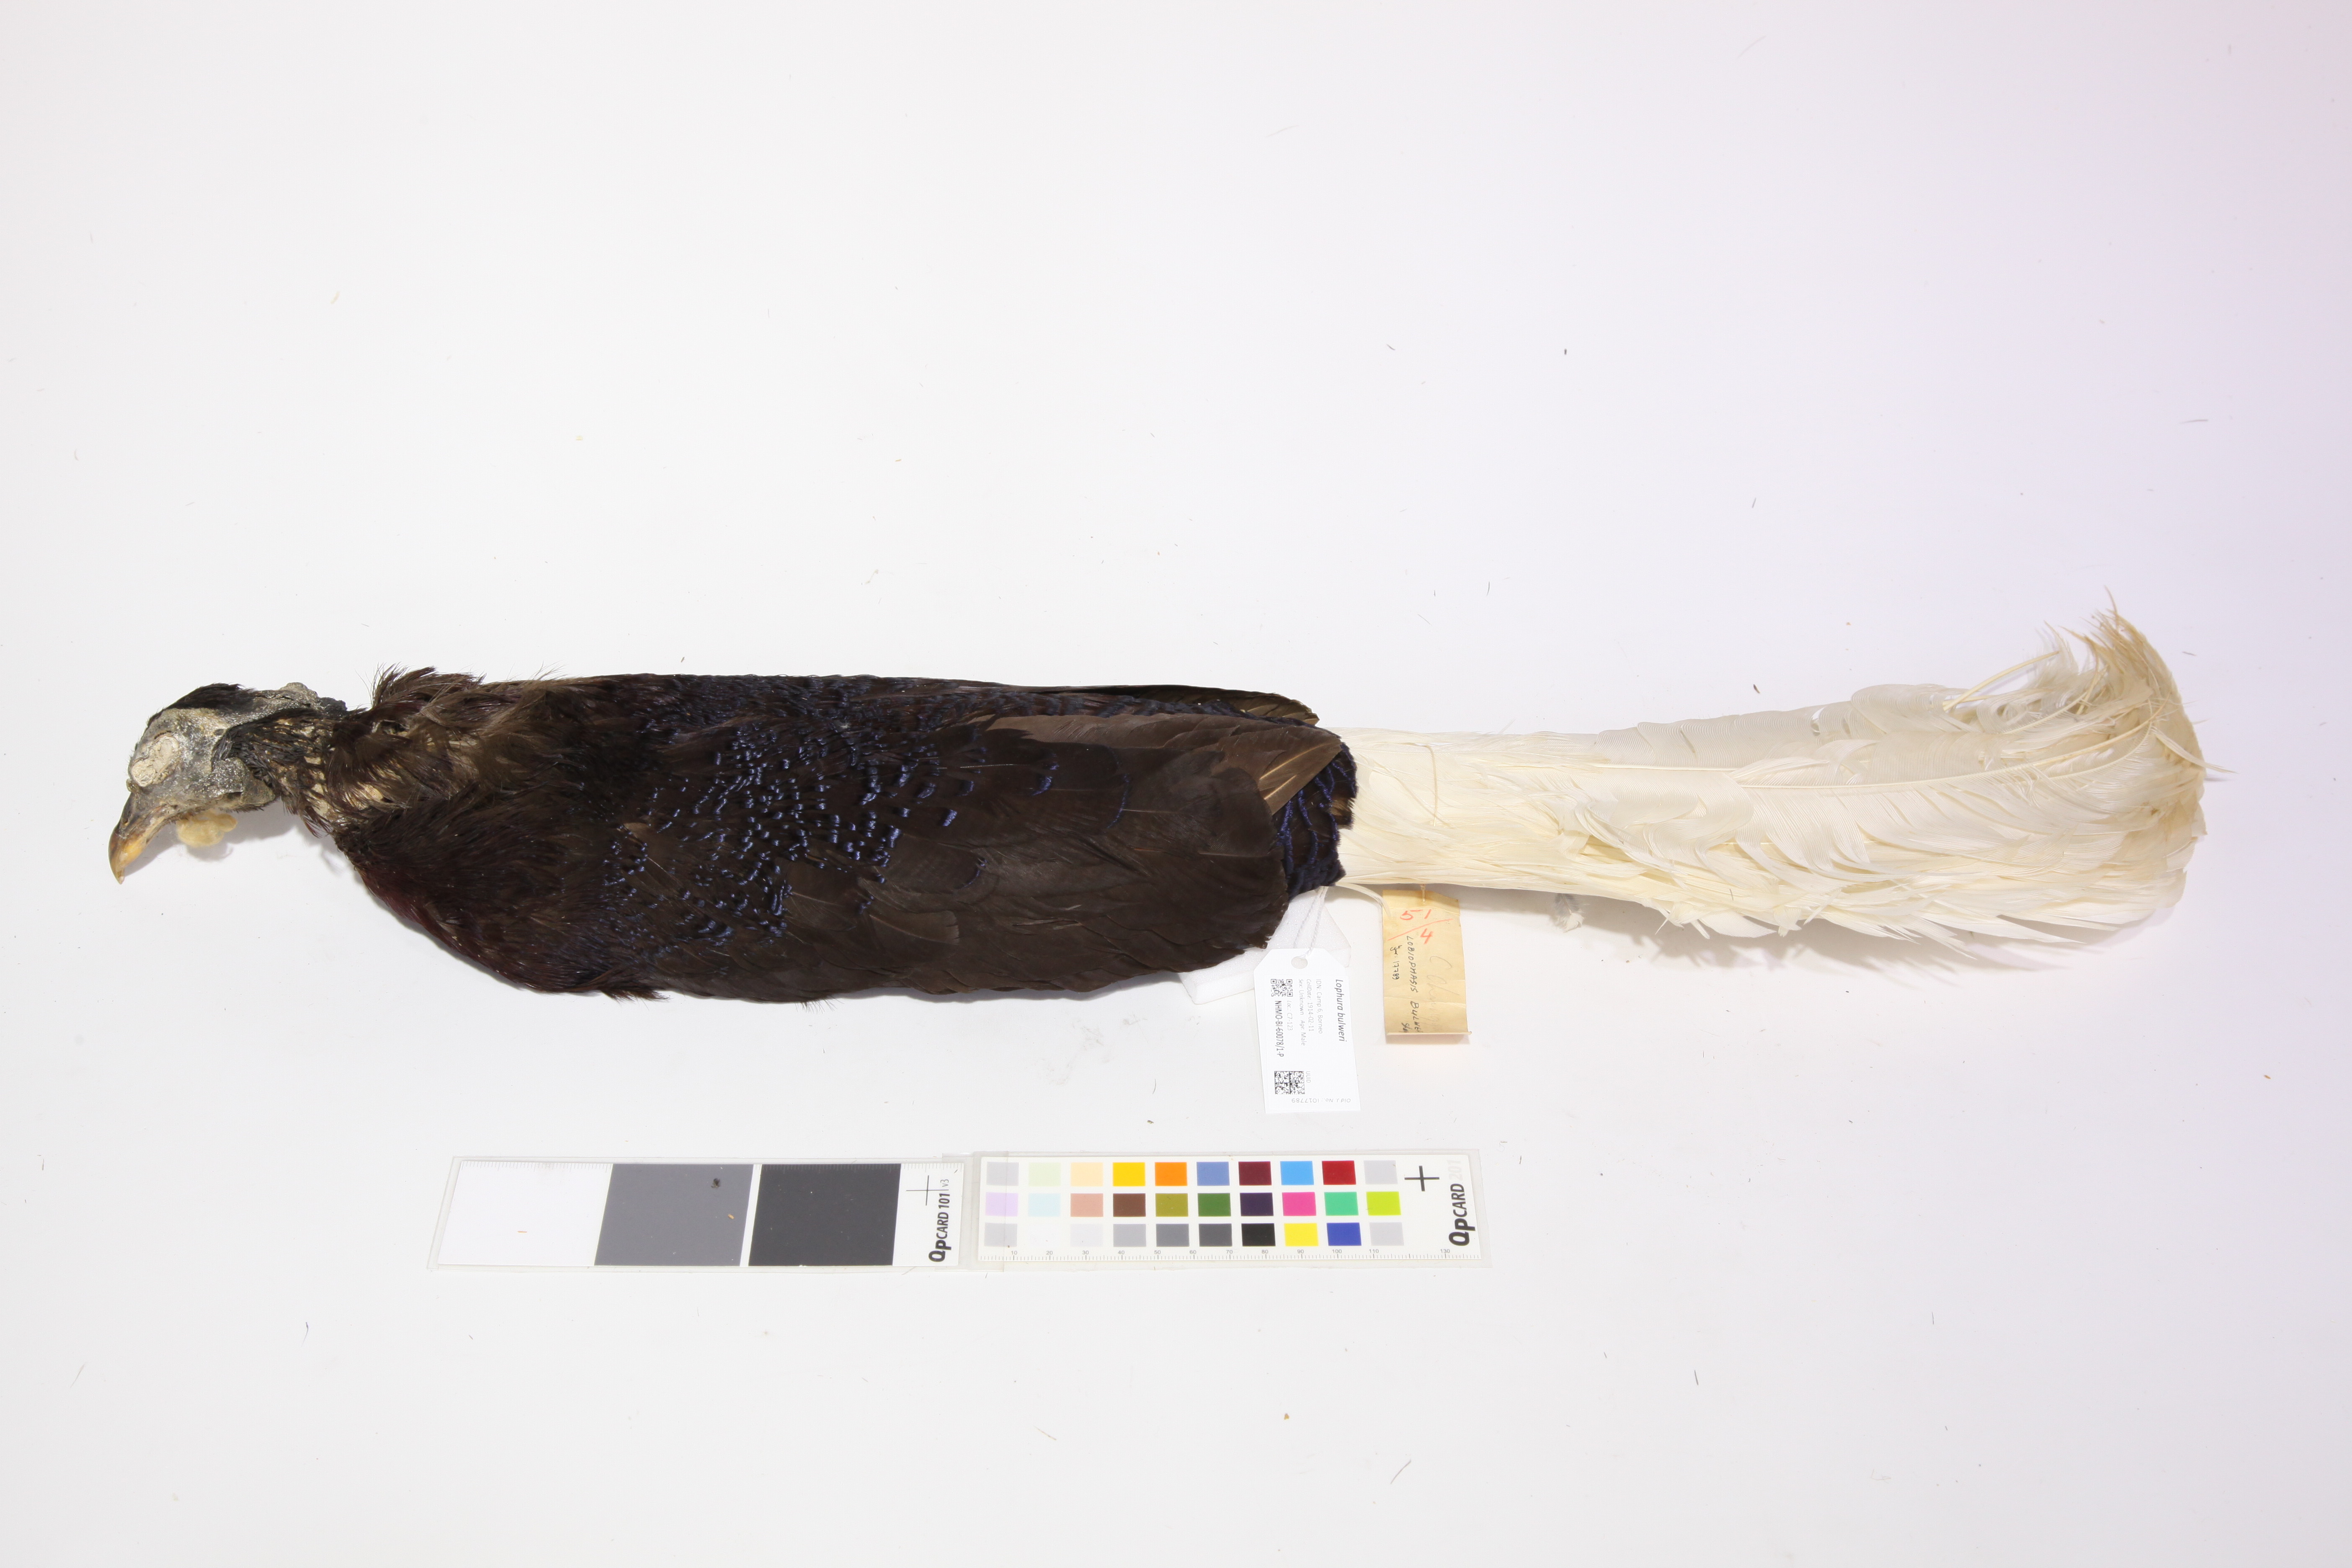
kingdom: Animalia
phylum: Chordata
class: Aves
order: Galliformes
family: Phasianidae
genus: Lophura
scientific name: Lophura bulweri
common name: Bulwer's pheasant
